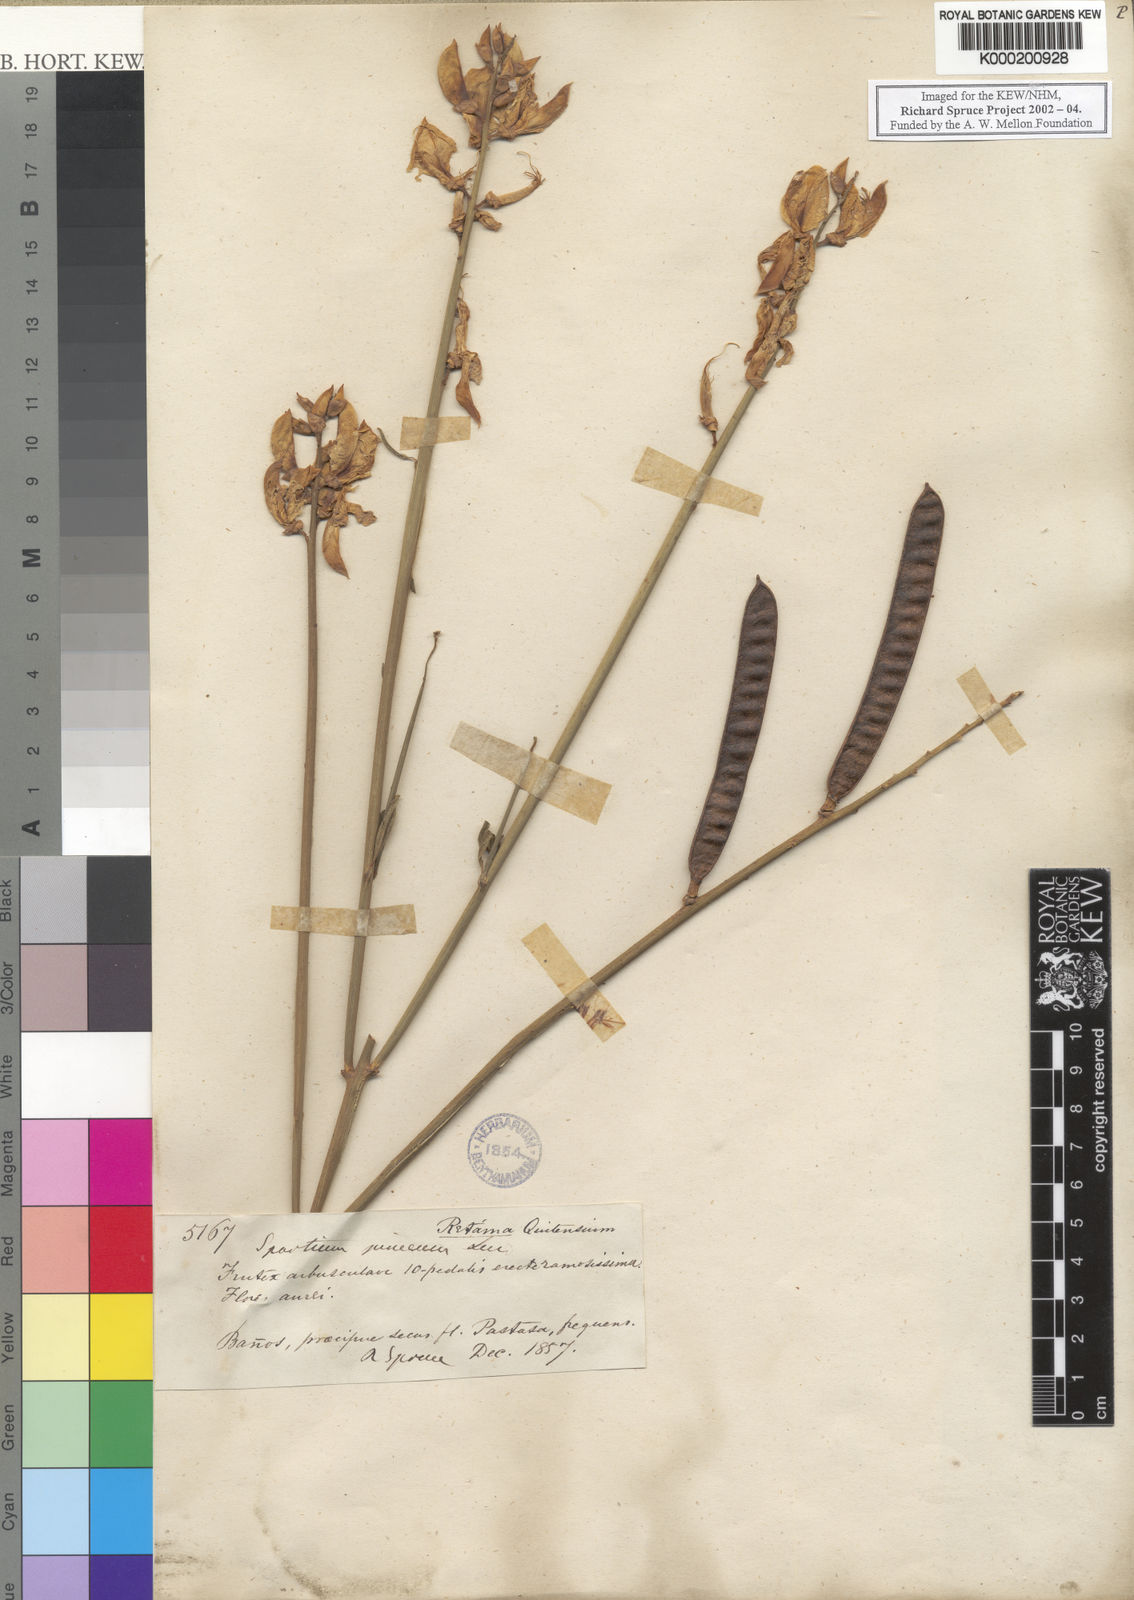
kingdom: Plantae
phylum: Tracheophyta
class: Magnoliopsida
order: Fabales
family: Fabaceae
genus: Spartium
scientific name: Spartium junceum
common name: Spanish broom
